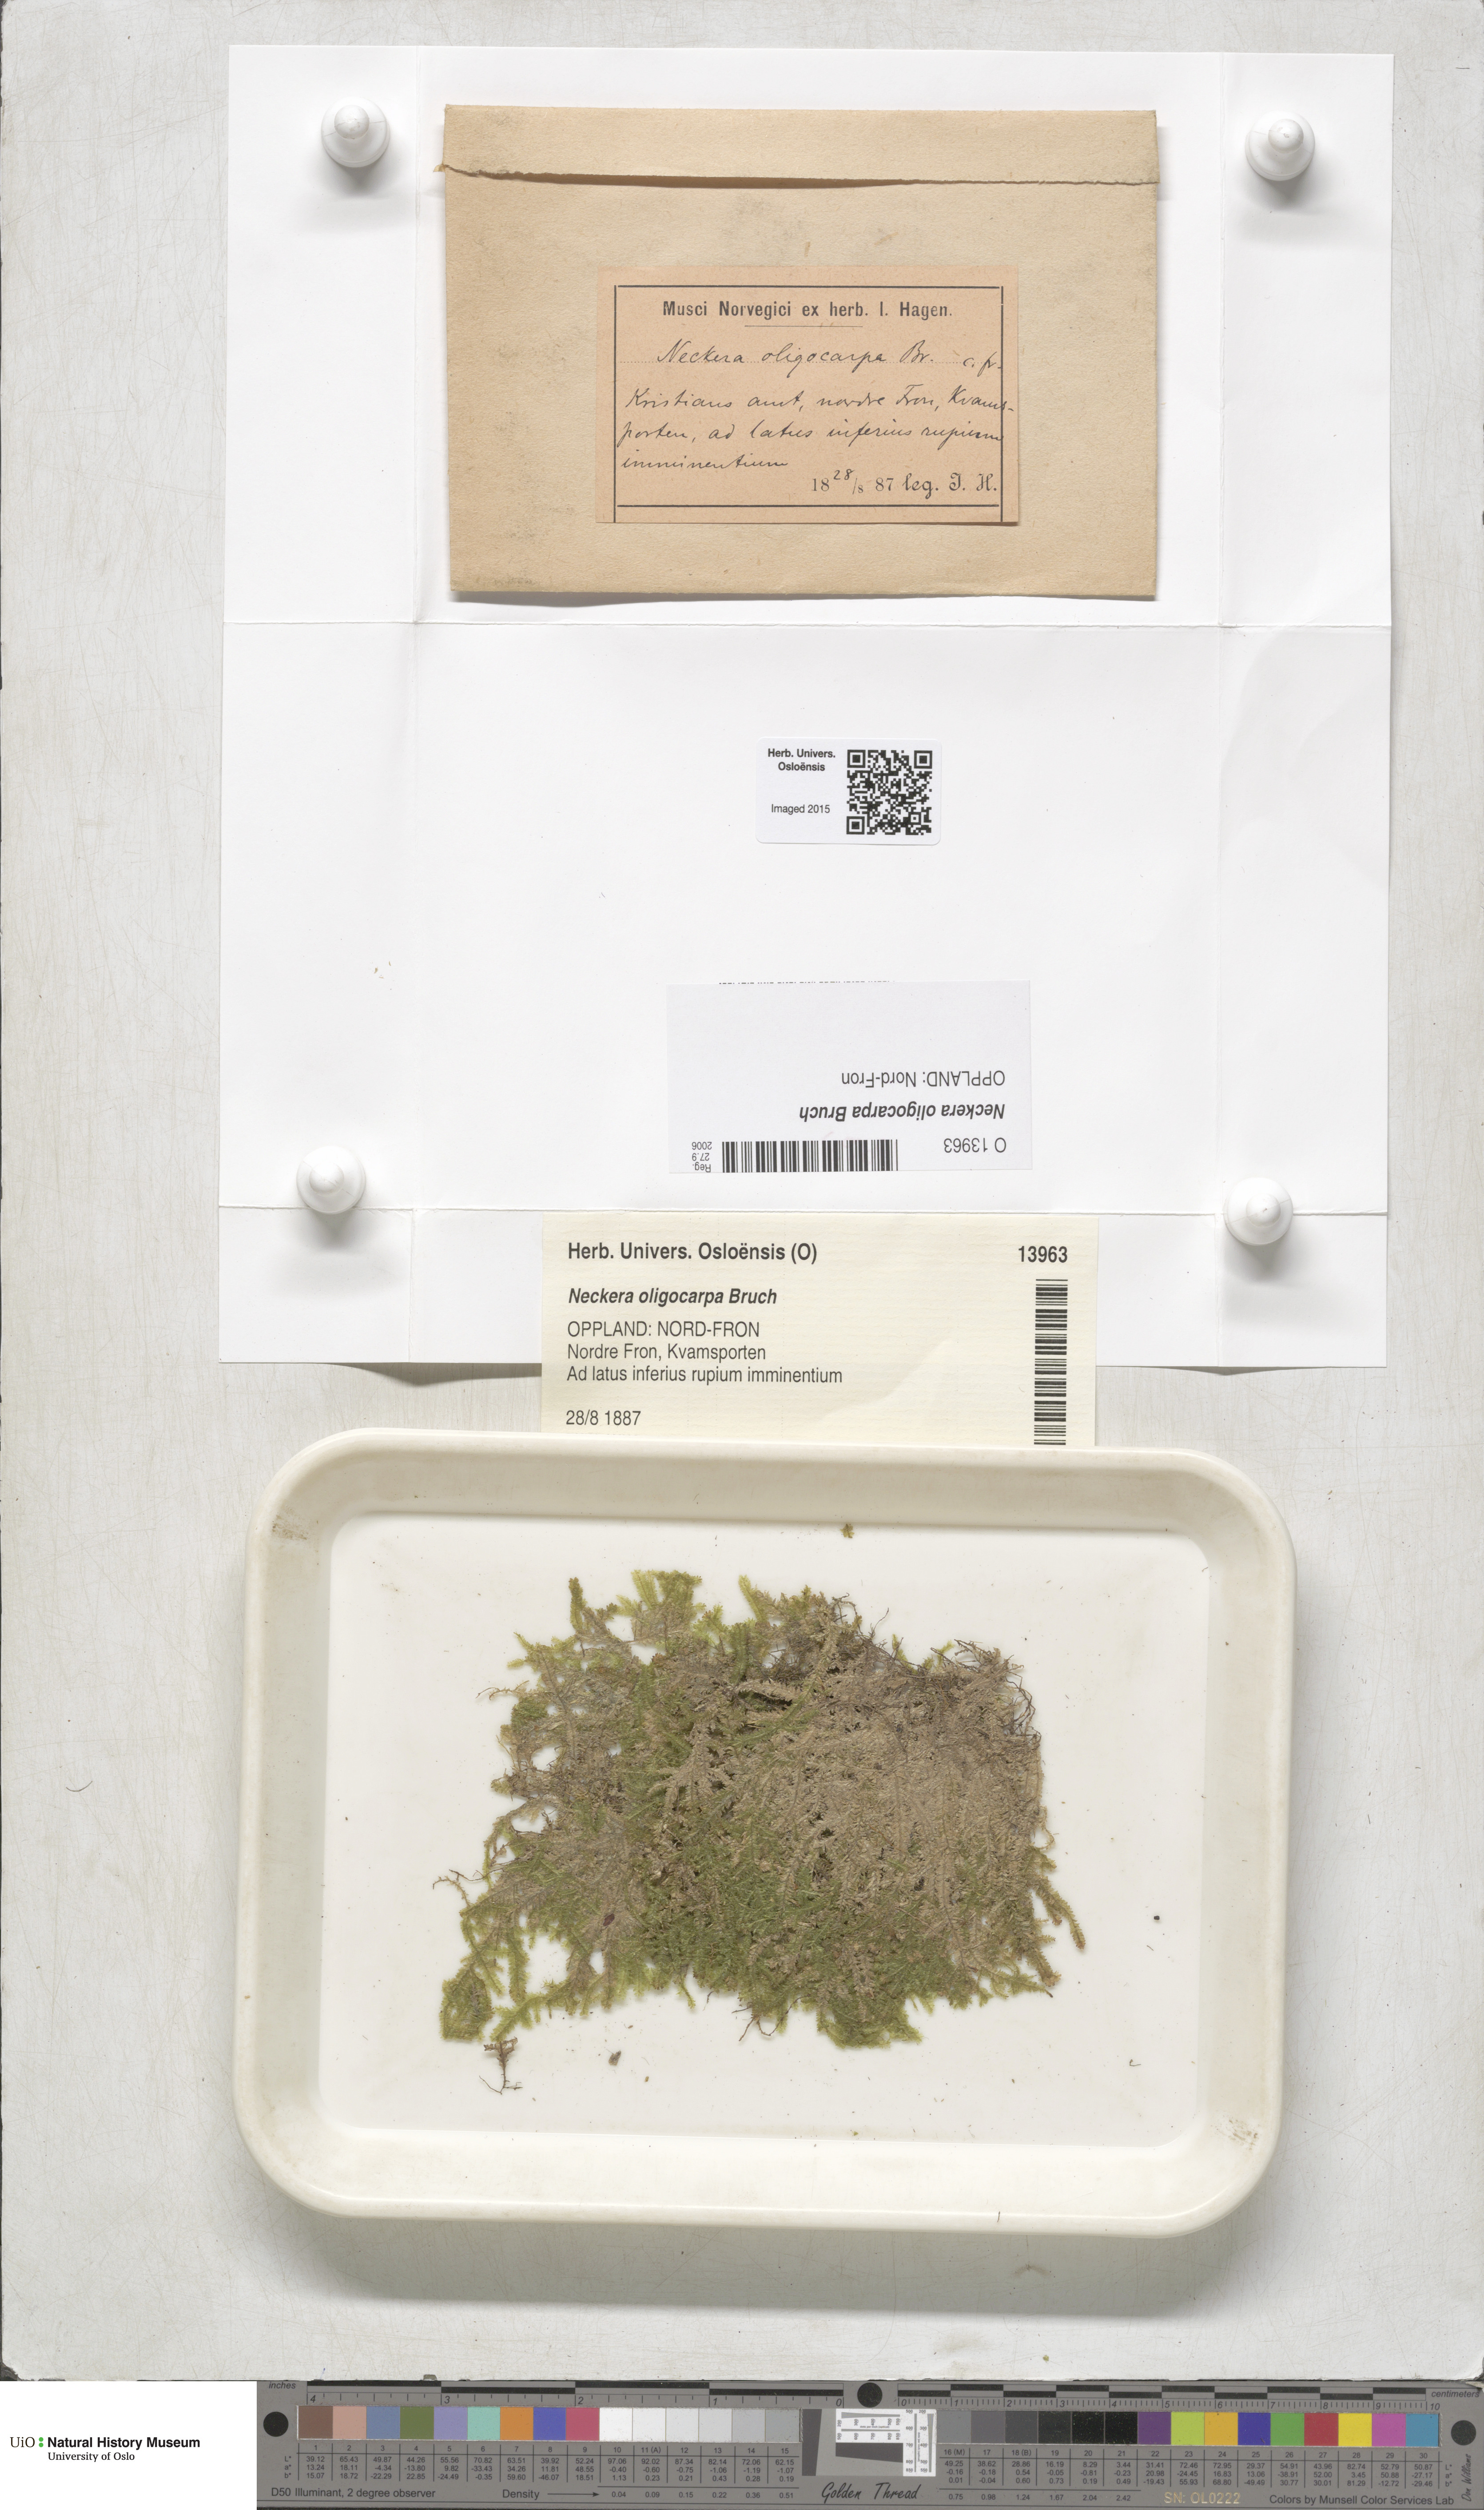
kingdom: Plantae
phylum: Bryophyta
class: Bryopsida
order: Hypnales
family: Neckeraceae
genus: Neckera
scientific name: Neckera oligocarpa
